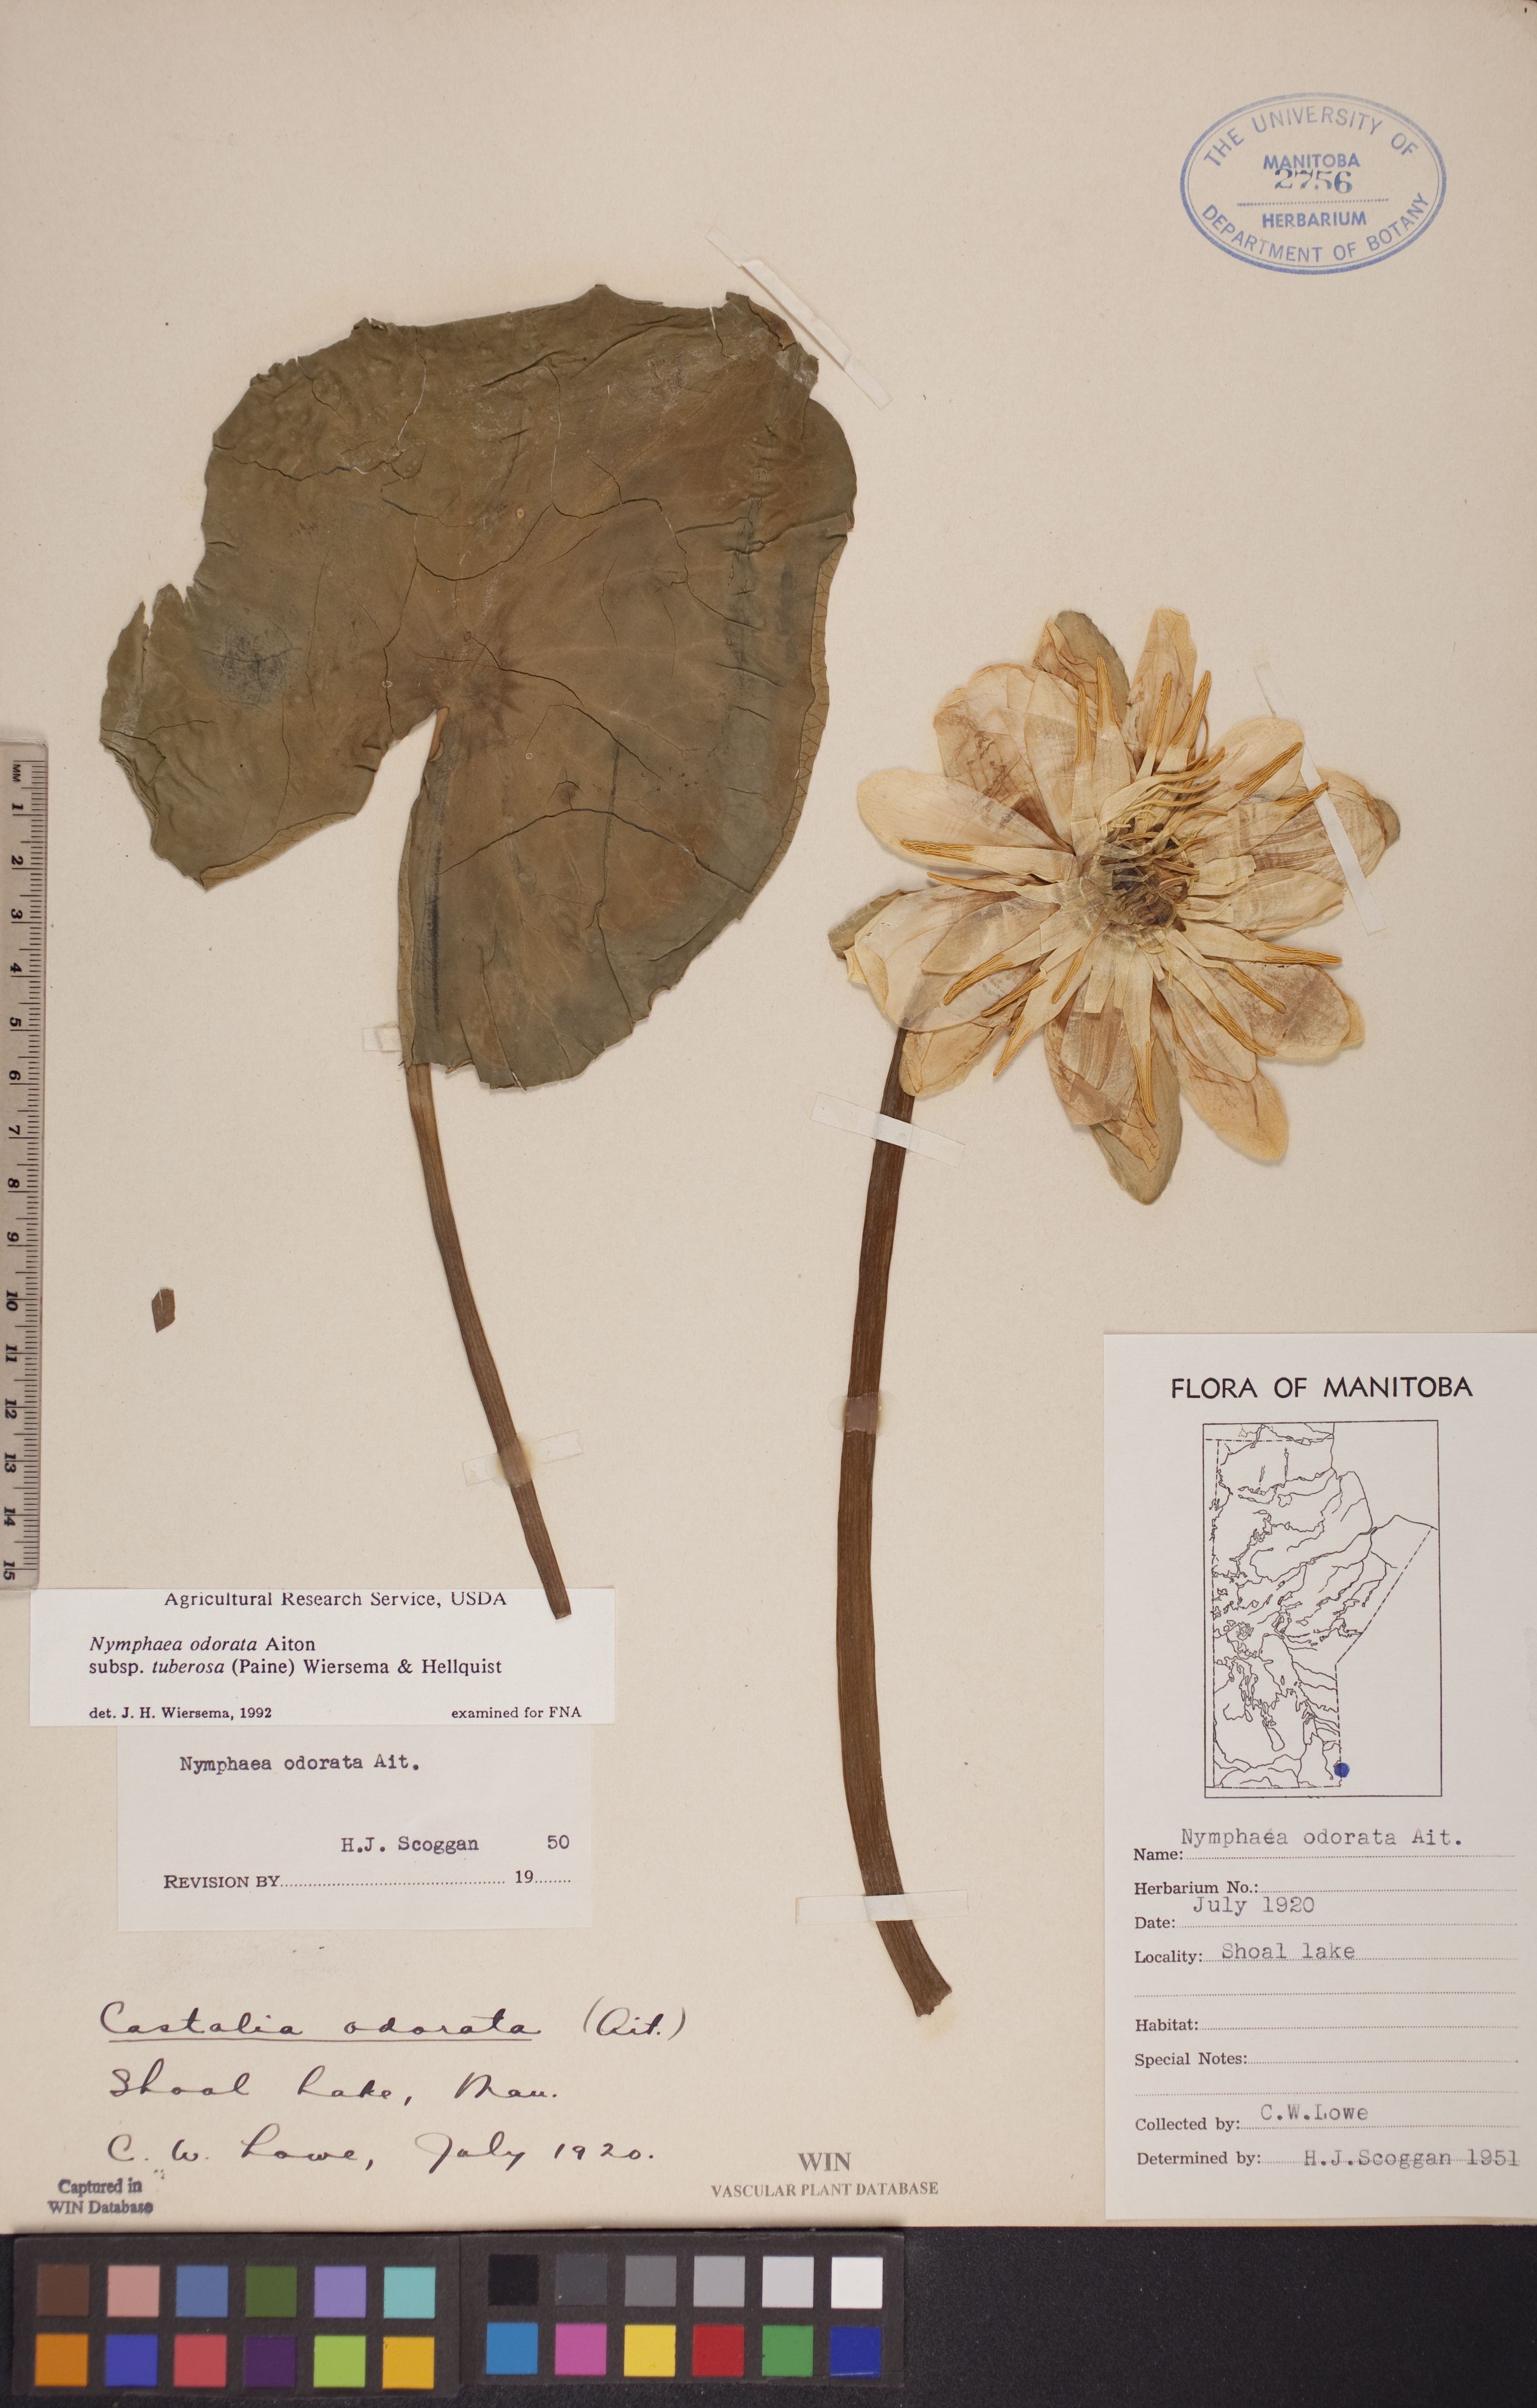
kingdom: Plantae
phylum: Tracheophyta
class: Magnoliopsida
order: Nymphaeales
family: Nymphaeaceae
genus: Nymphaea
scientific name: Nymphaea odorata
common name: Fragrant water-lily
